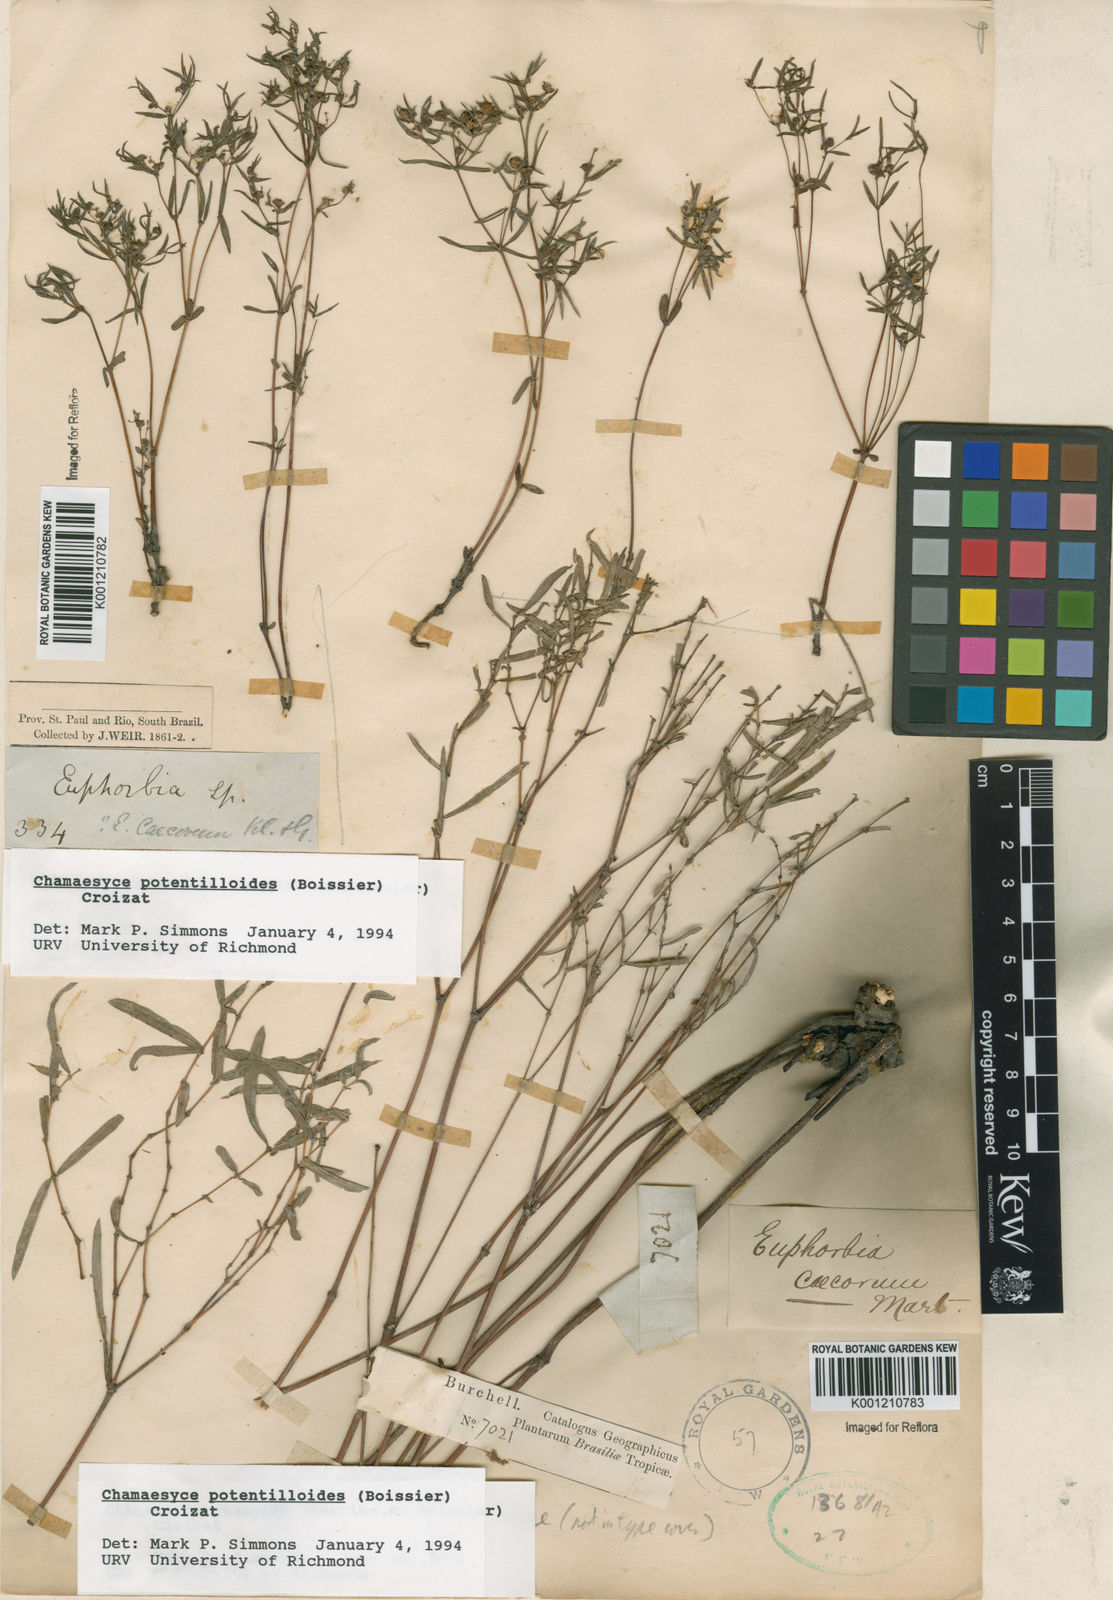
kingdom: Plantae
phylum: Tracheophyta
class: Magnoliopsida
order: Malpighiales
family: Euphorbiaceae
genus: Euphorbia
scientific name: Euphorbia potentilloides
